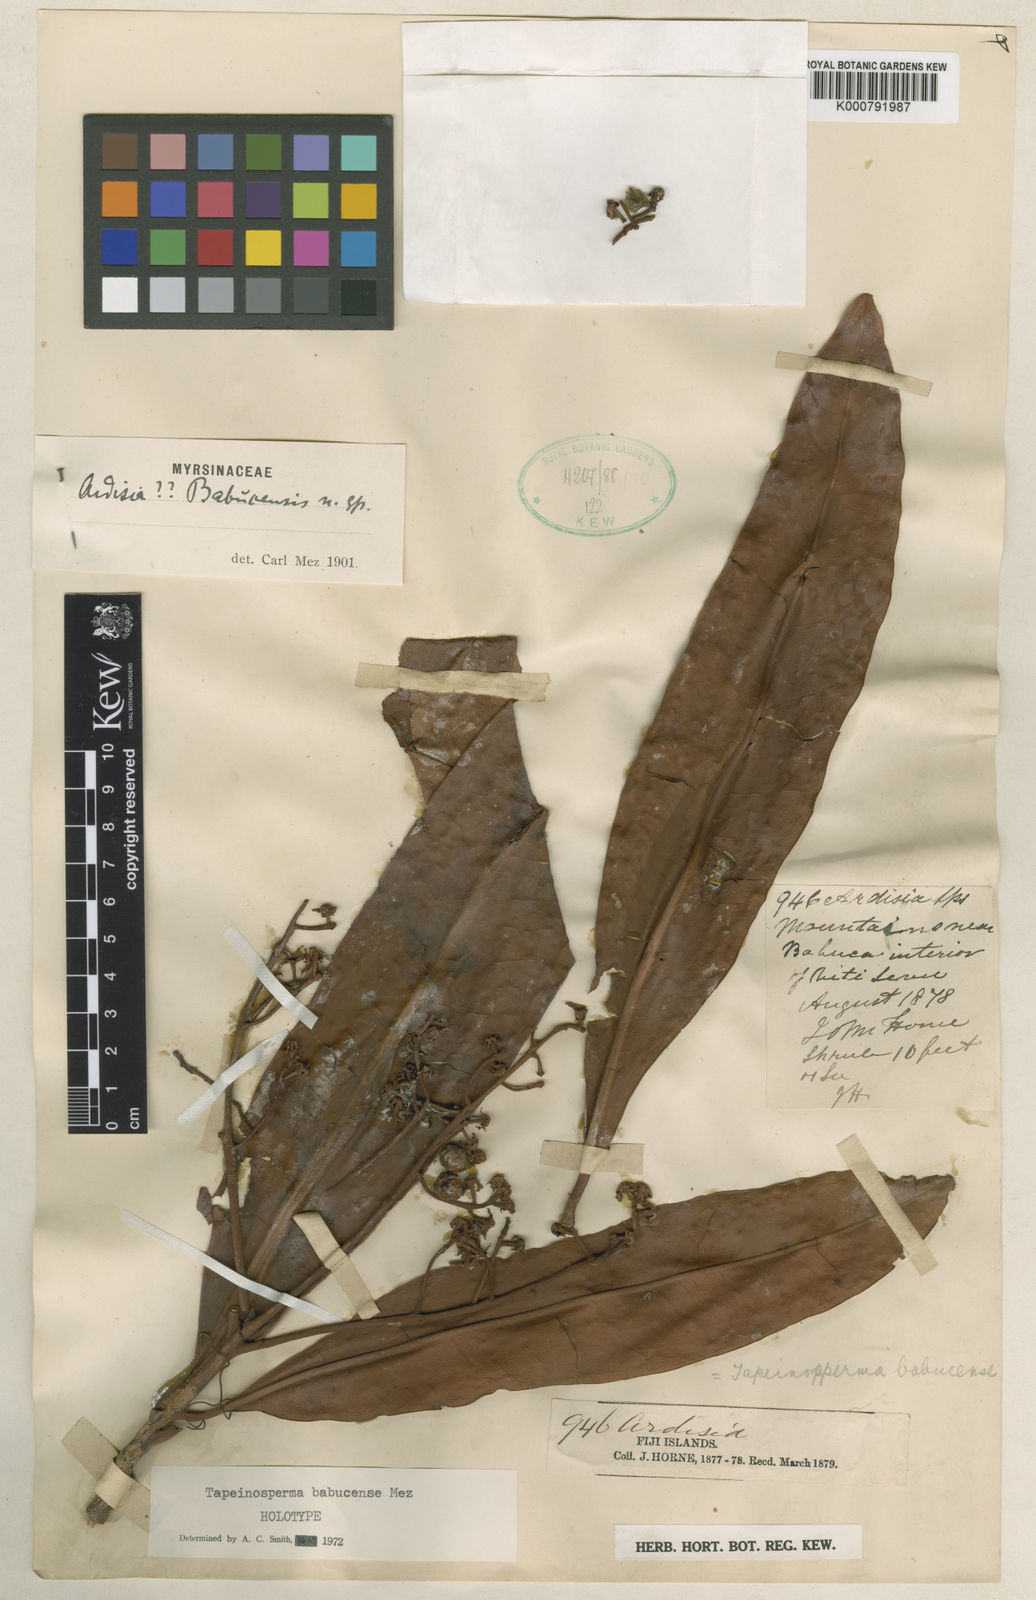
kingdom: Plantae
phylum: Tracheophyta
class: Magnoliopsida
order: Ericales
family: Primulaceae
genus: Tapeinosperma
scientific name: Tapeinosperma babucense
